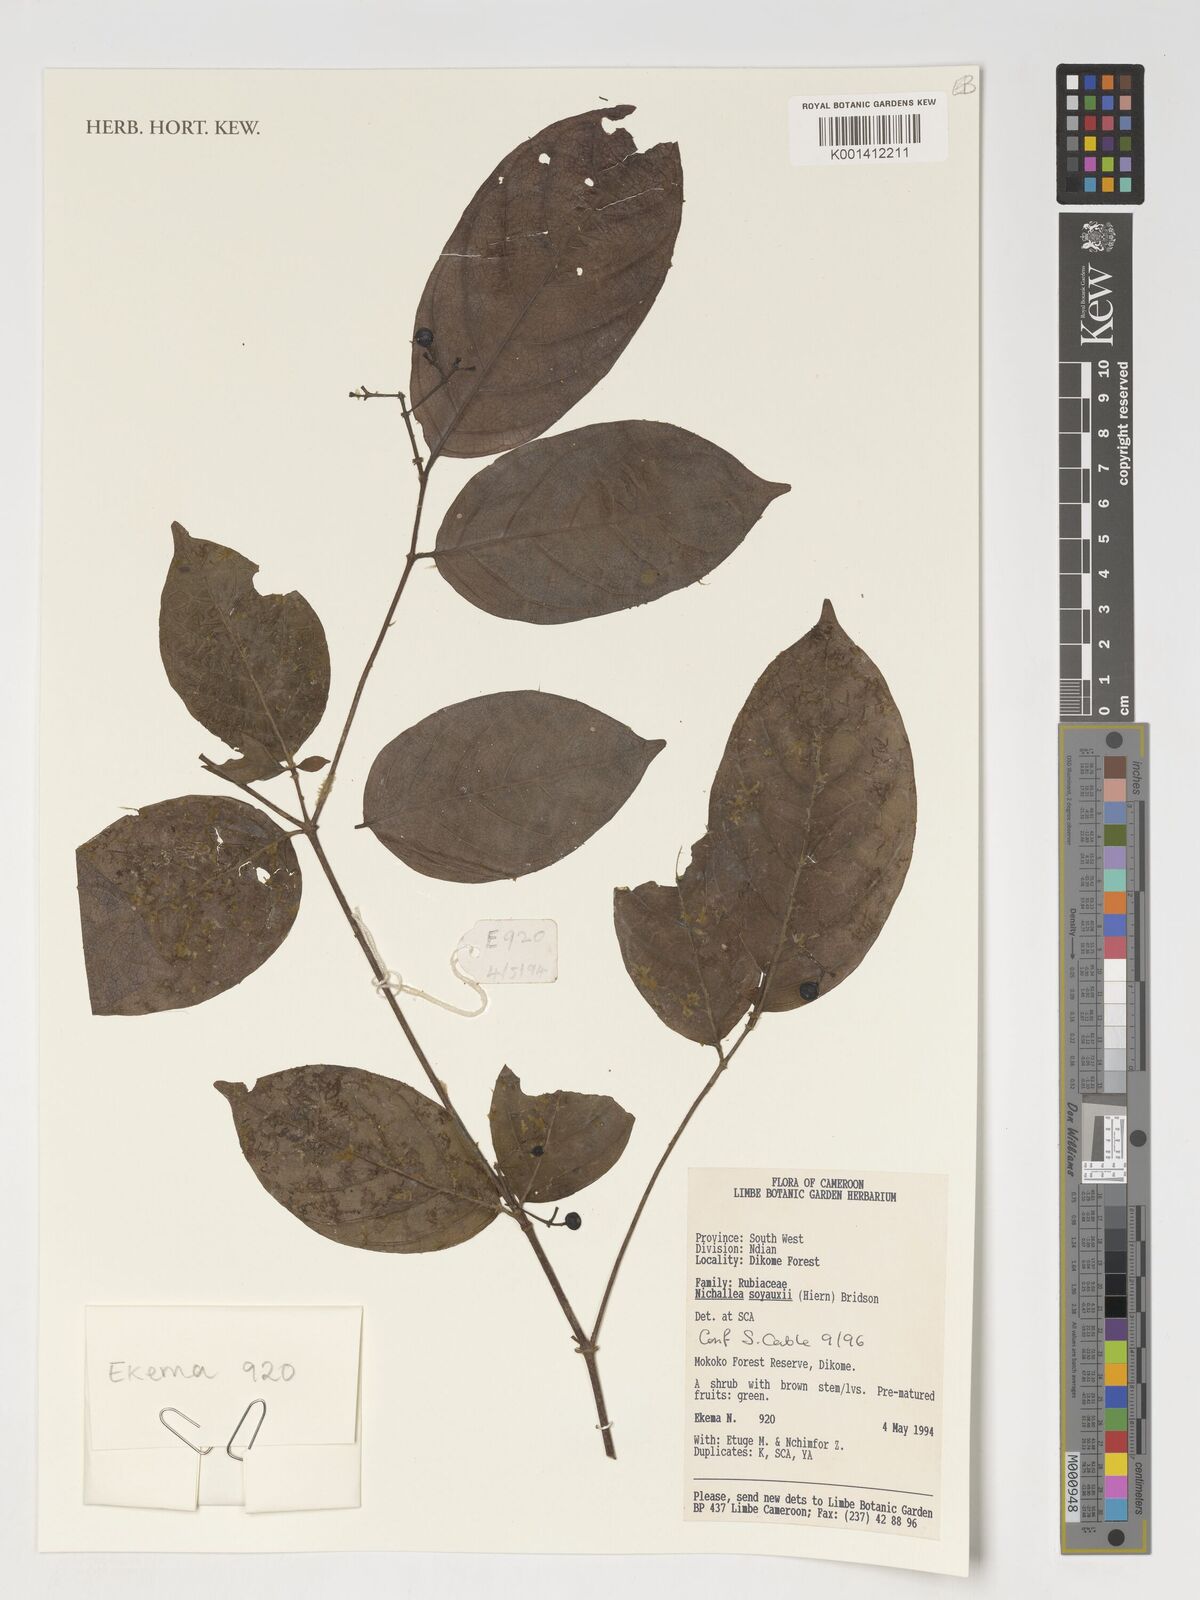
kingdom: Plantae
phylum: Tracheophyta
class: Magnoliopsida
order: Gentianales
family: Rubiaceae
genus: Nichallea
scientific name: Nichallea soyauxii
